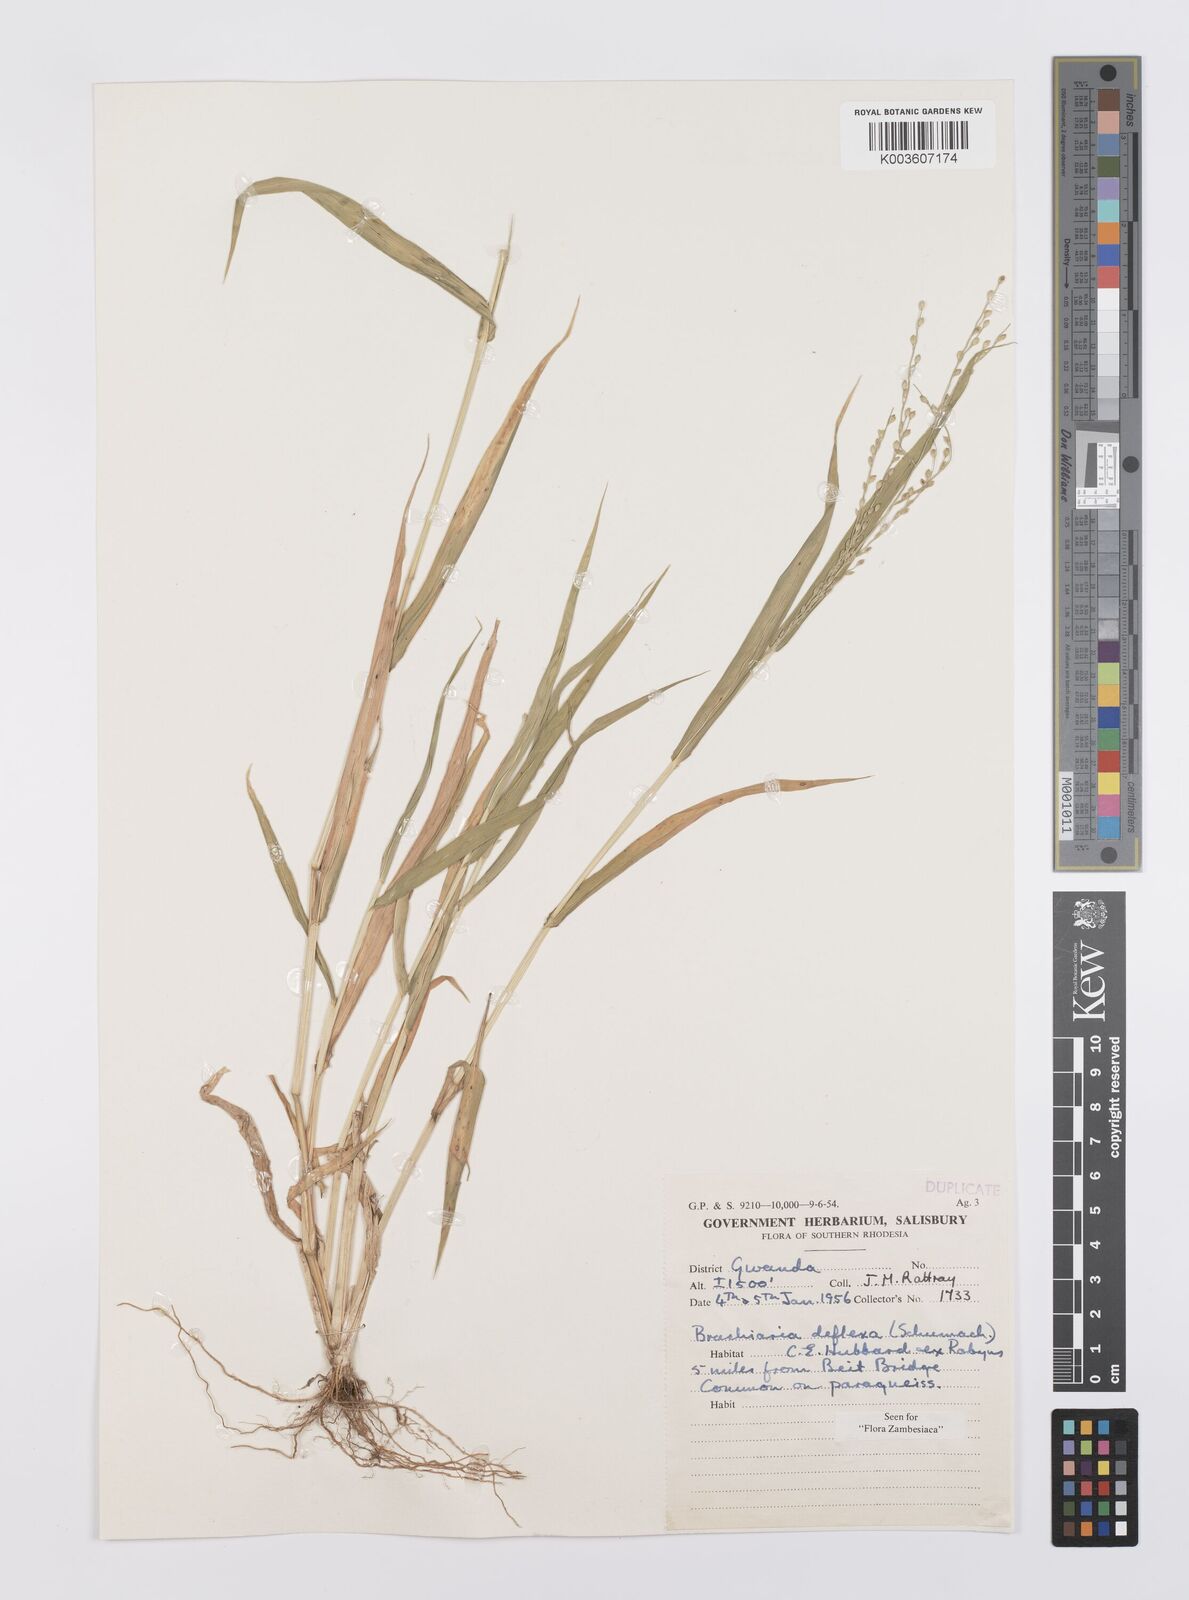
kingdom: Plantae
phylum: Tracheophyta
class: Liliopsida
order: Poales
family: Poaceae
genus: Urochloa
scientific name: Urochloa deflexa
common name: Guinea millet
